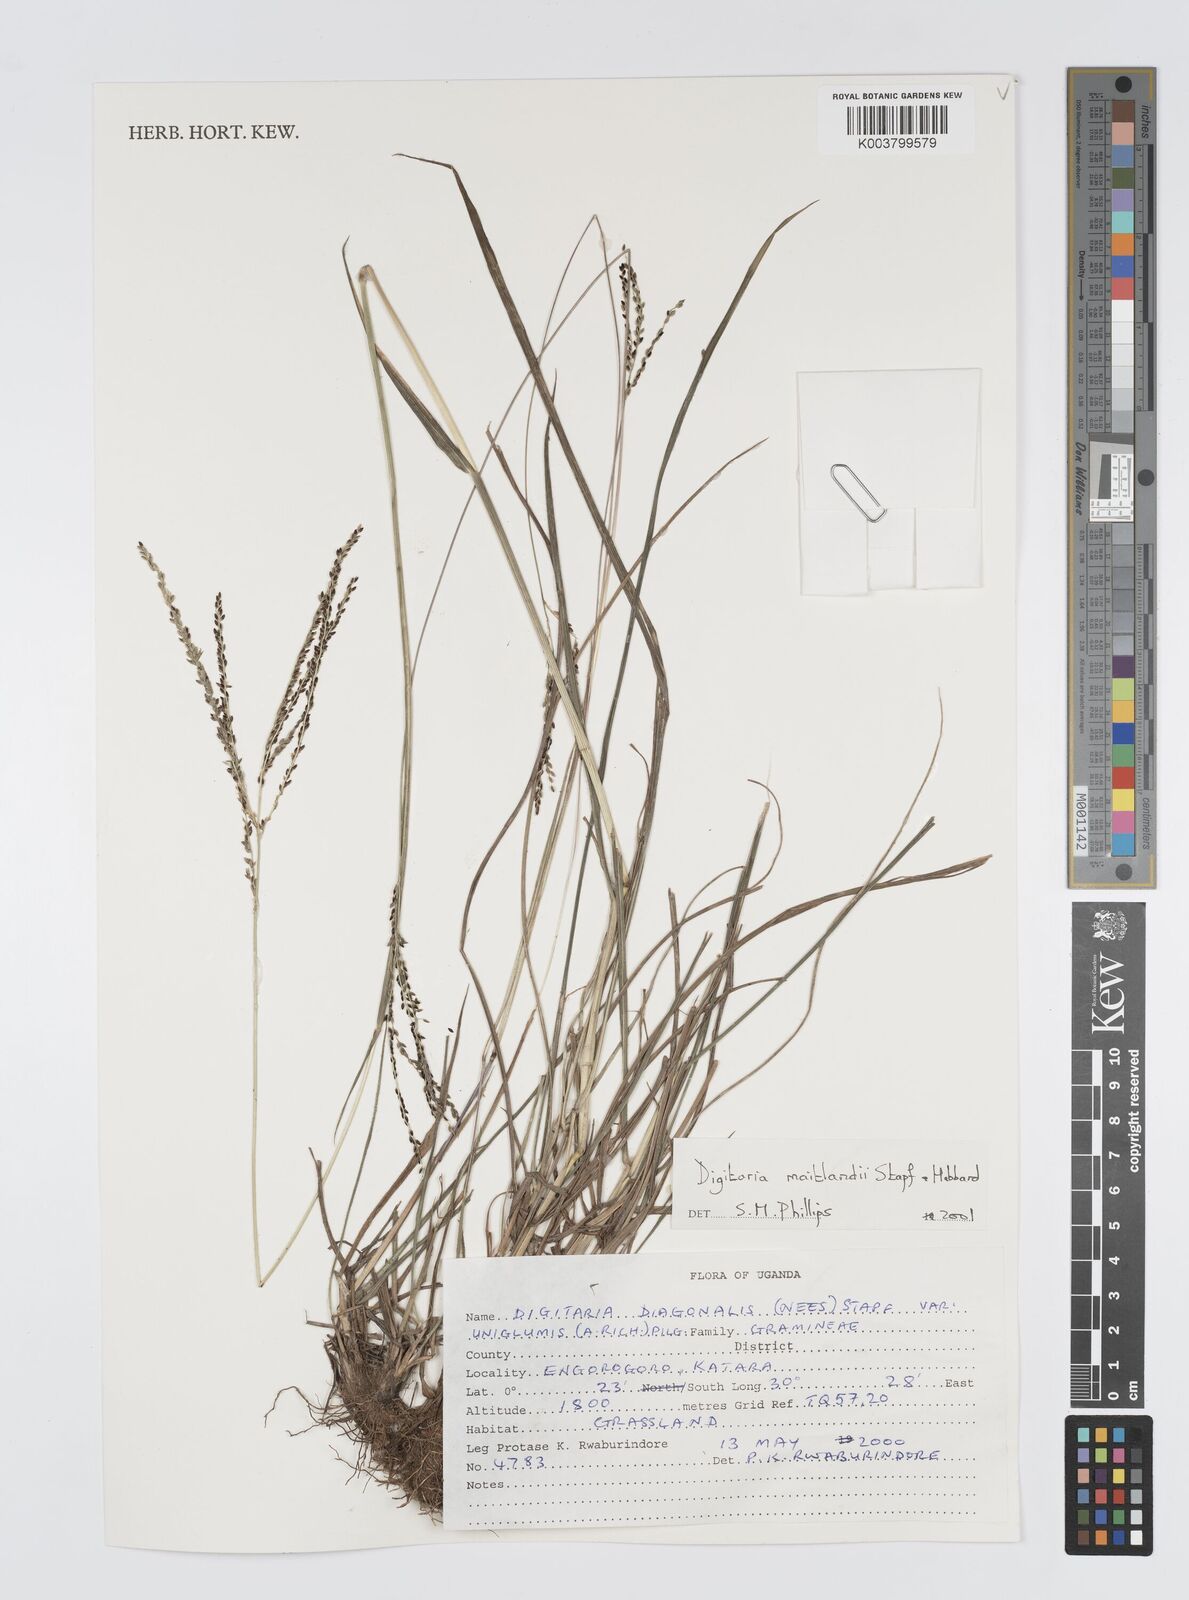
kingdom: Plantae
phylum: Tracheophyta
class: Liliopsida
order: Poales
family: Poaceae
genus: Digitaria
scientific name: Digitaria maitlandii
